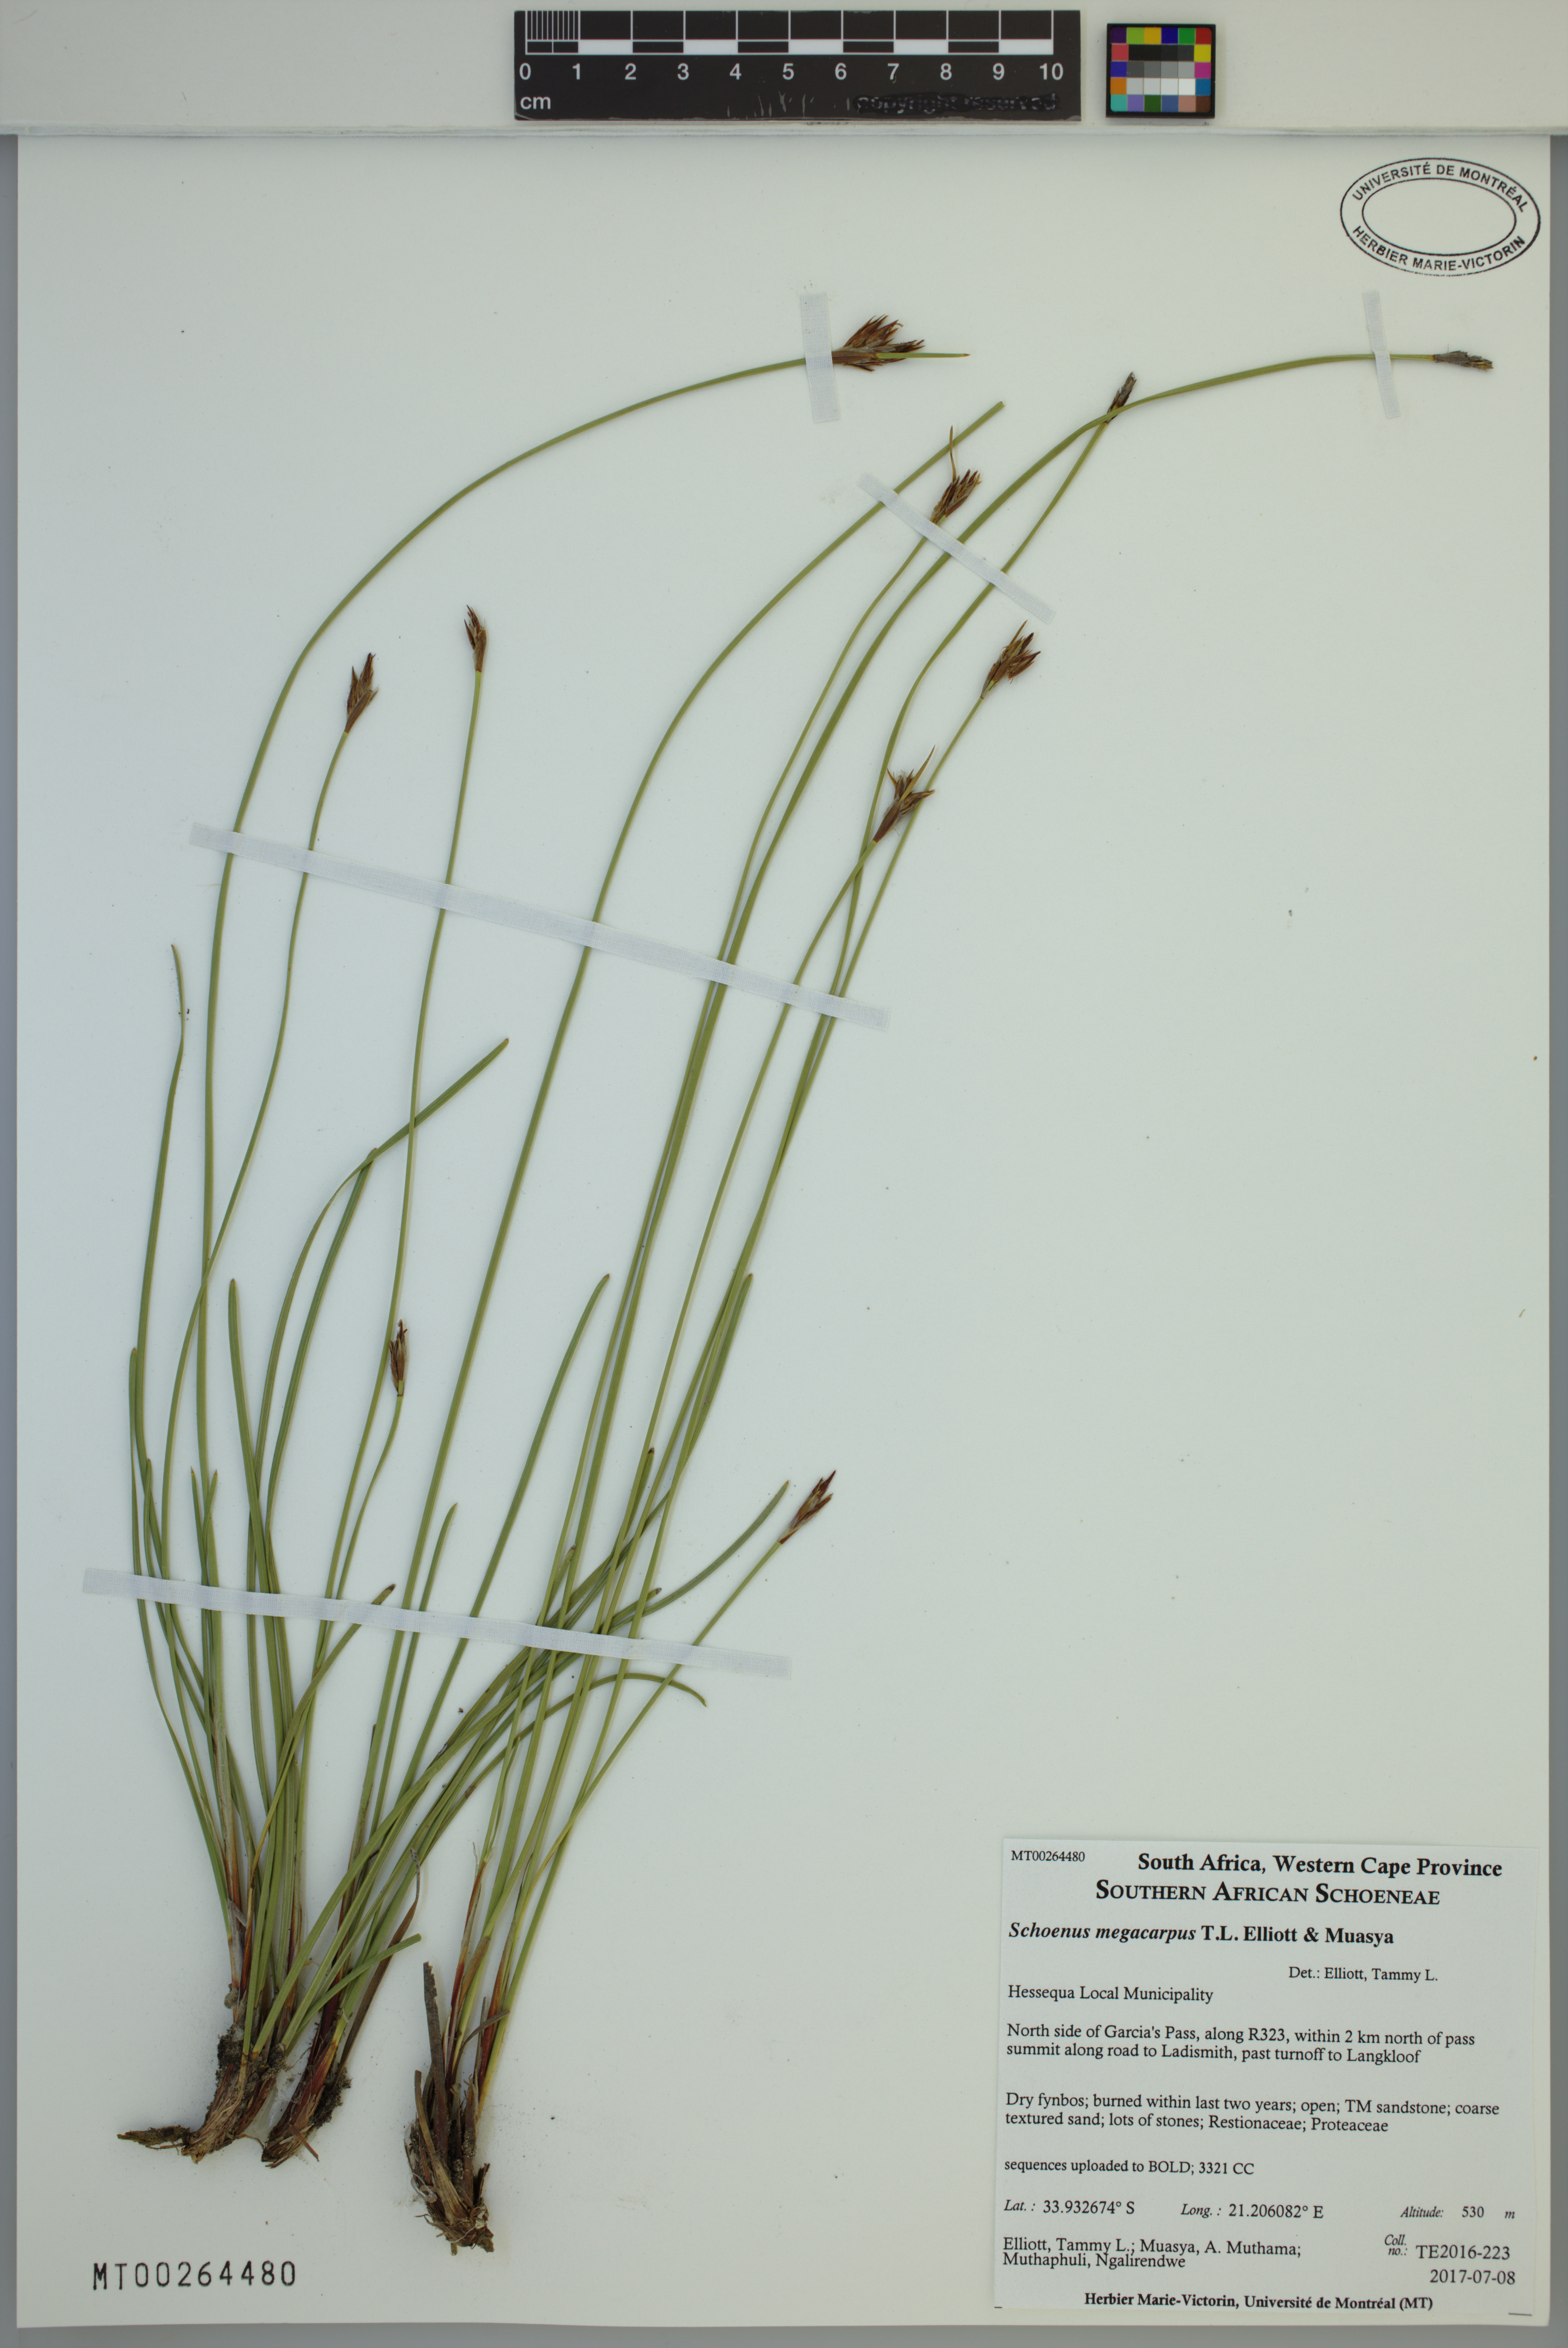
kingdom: Plantae
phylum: Tracheophyta
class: Liliopsida
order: Poales
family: Cyperaceae
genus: Schoenus
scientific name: Schoenus megacarpus
